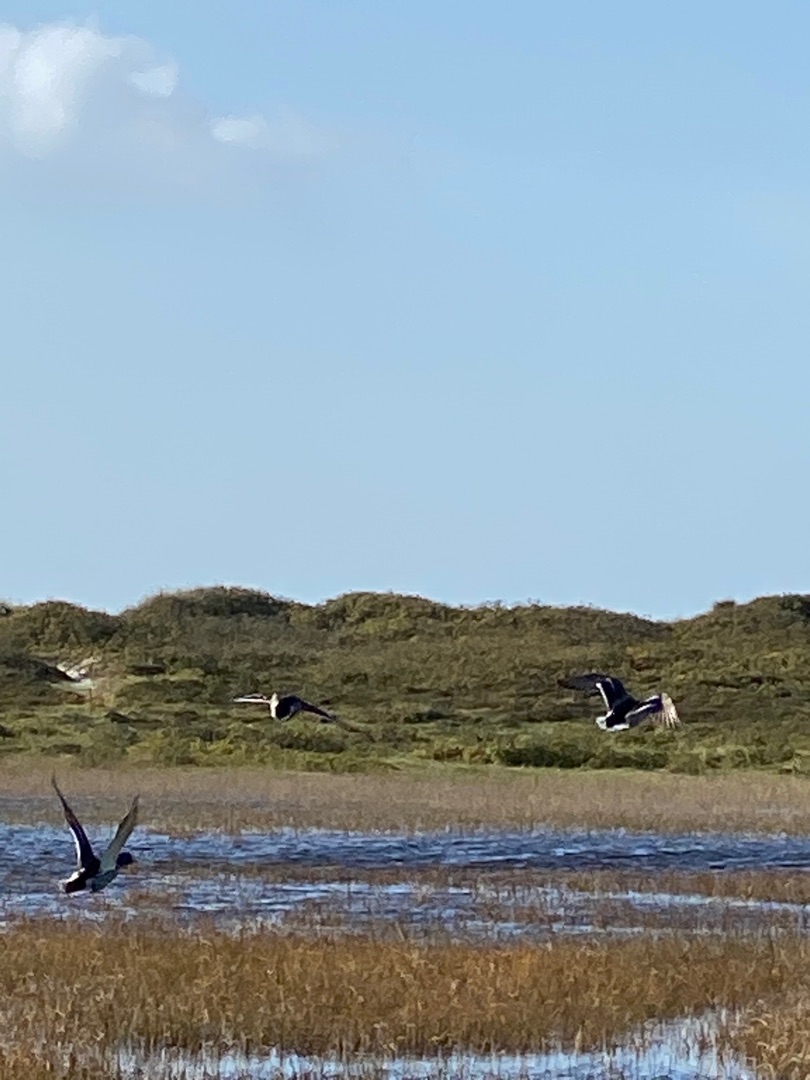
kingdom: Animalia
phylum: Chordata
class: Aves
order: Anseriformes
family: Anatidae
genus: Anas
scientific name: Anas platyrhynchos
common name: Gråand
